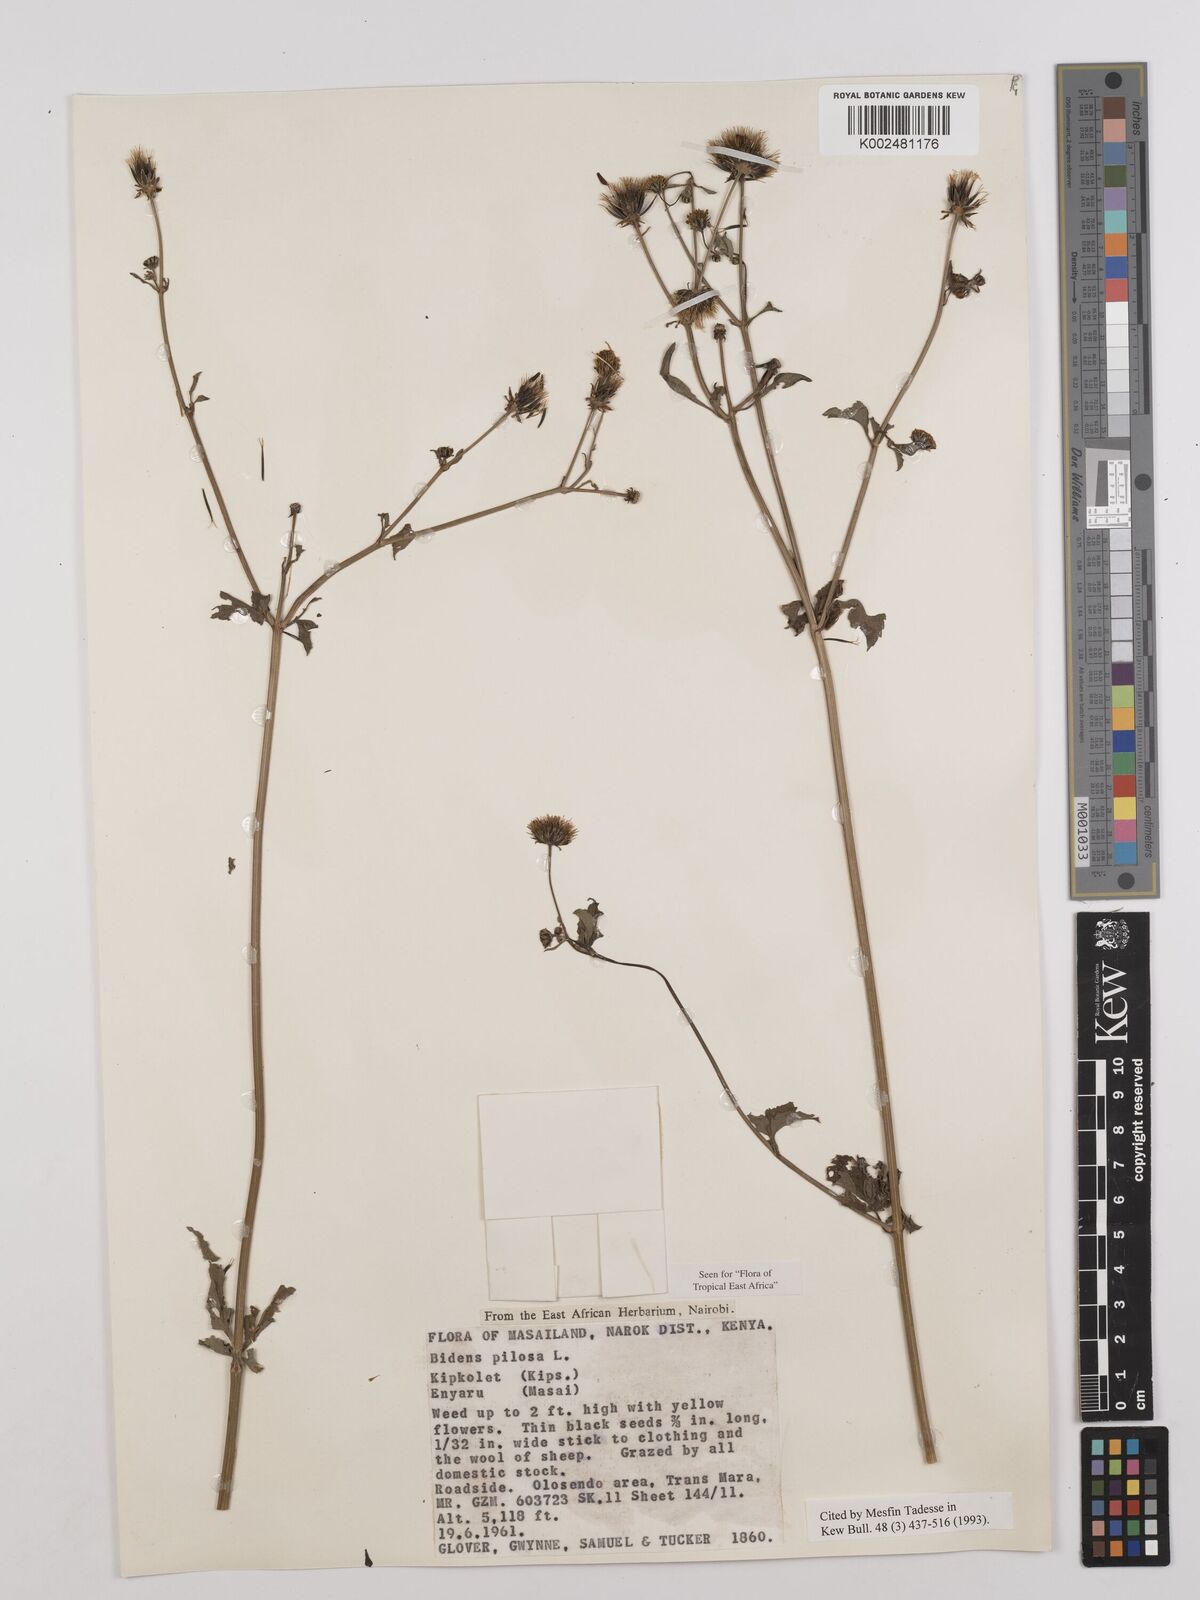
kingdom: Plantae
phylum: Tracheophyta
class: Magnoliopsida
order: Asterales
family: Asteraceae
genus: Bidens
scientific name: Bidens pilosa
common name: Black-jack
